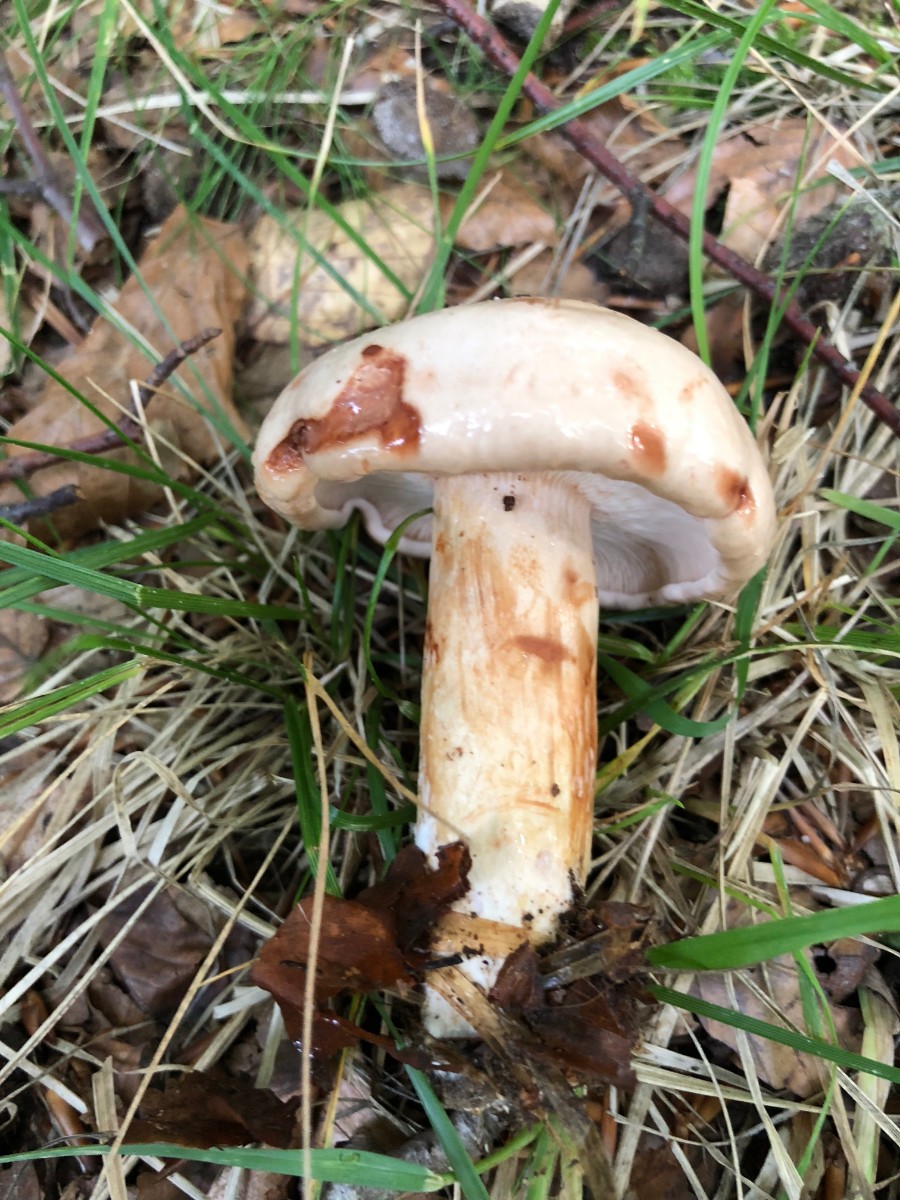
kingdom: Fungi
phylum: Basidiomycota
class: Agaricomycetes
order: Russulales
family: Russulaceae
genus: Lactarius
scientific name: Lactarius pallidus
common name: bleg mælkehat
